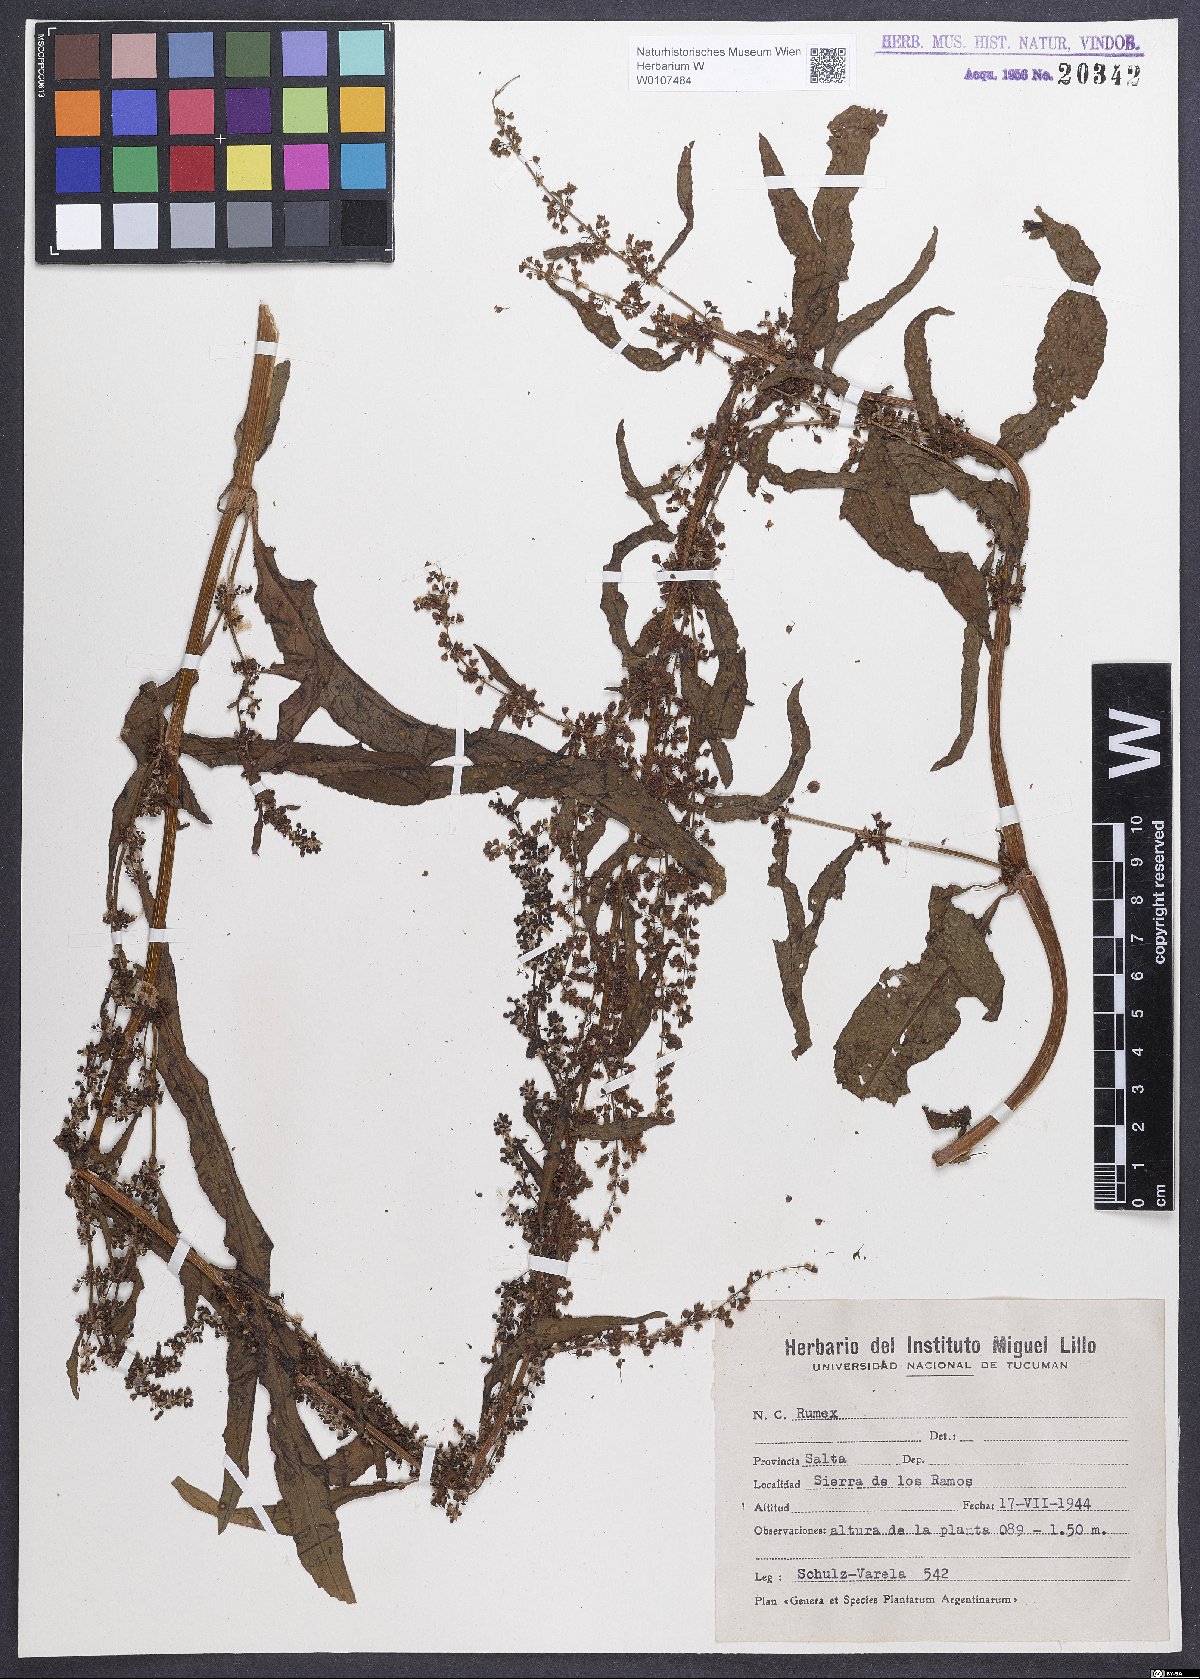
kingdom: Plantae
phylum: Tracheophyta
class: Magnoliopsida
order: Caryophyllales
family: Polygonaceae
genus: Rumex
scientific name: Rumex crispus
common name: Curled dock
